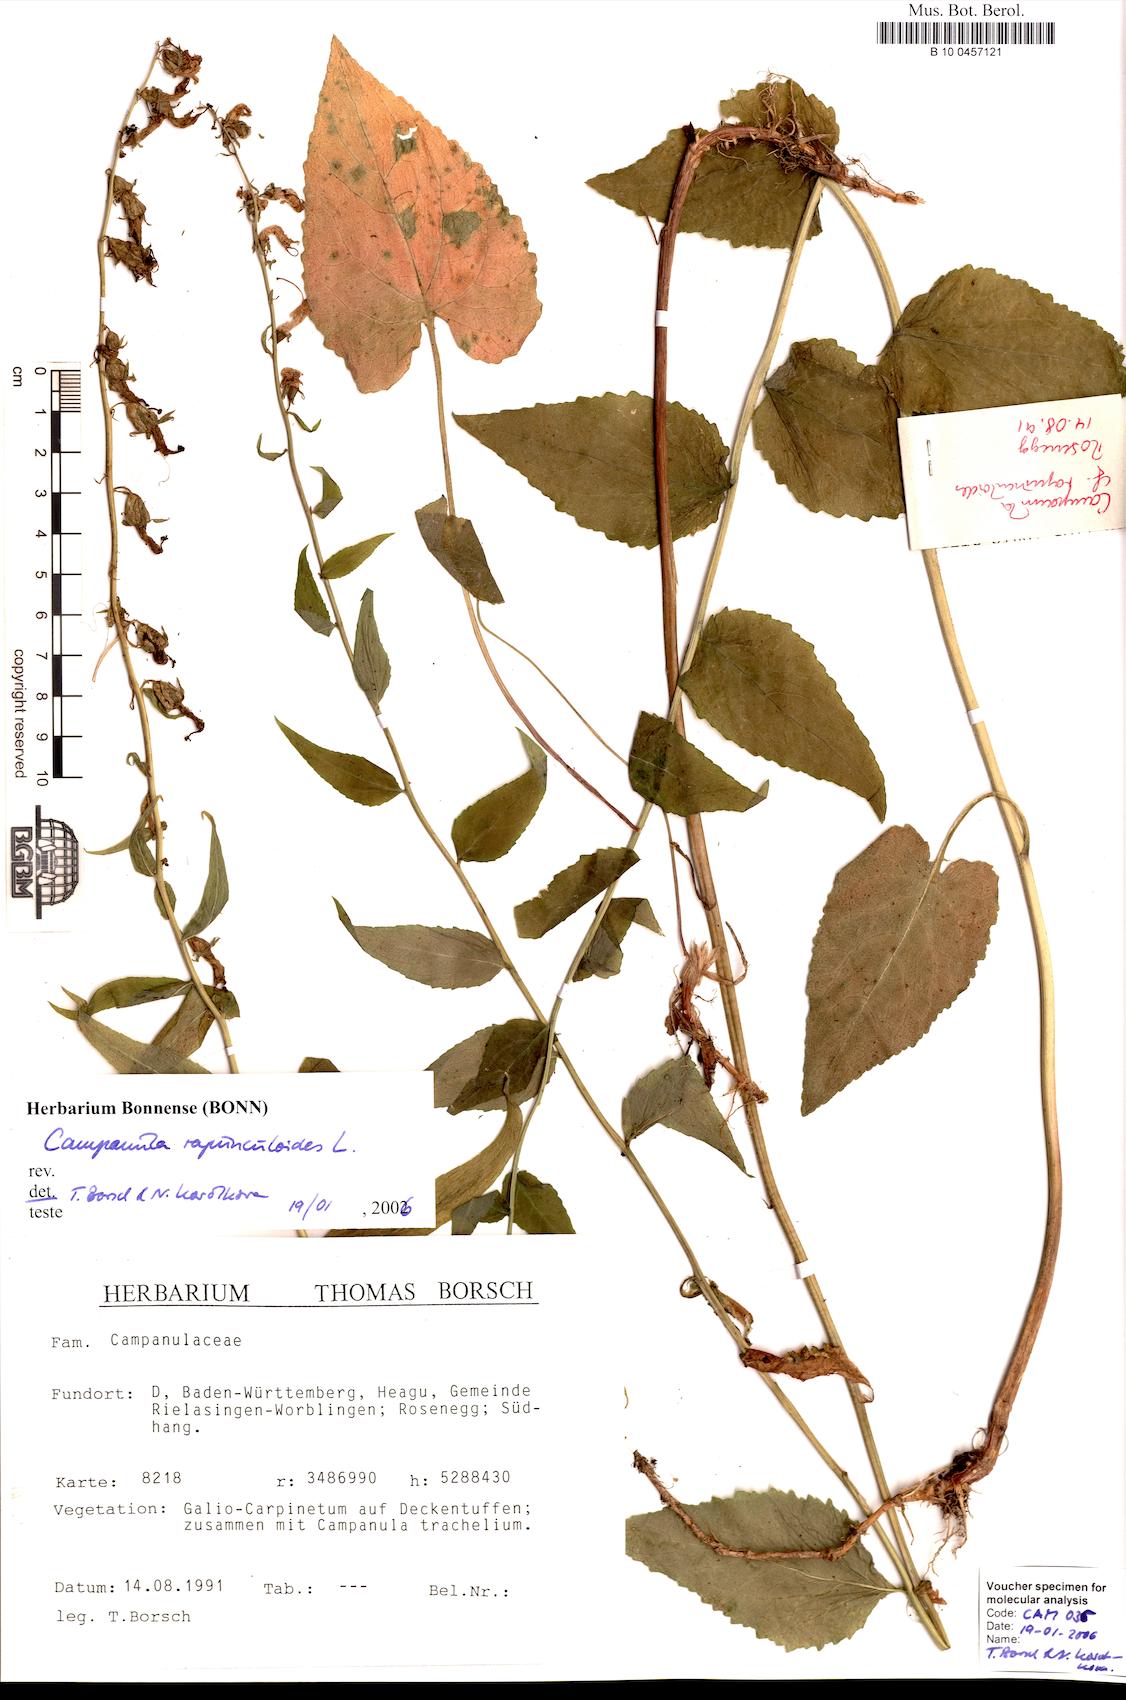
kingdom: Plantae
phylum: Tracheophyta
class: Magnoliopsida
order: Asterales
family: Campanulaceae
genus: Campanula
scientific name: Campanula rapunculoides
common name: Creeping bellflower
